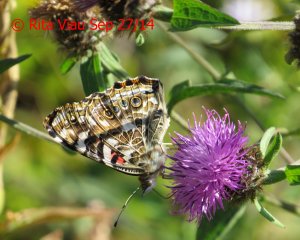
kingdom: Animalia
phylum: Arthropoda
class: Insecta
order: Lepidoptera
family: Nymphalidae
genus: Vanessa
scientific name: Vanessa cardui
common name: Painted Lady
